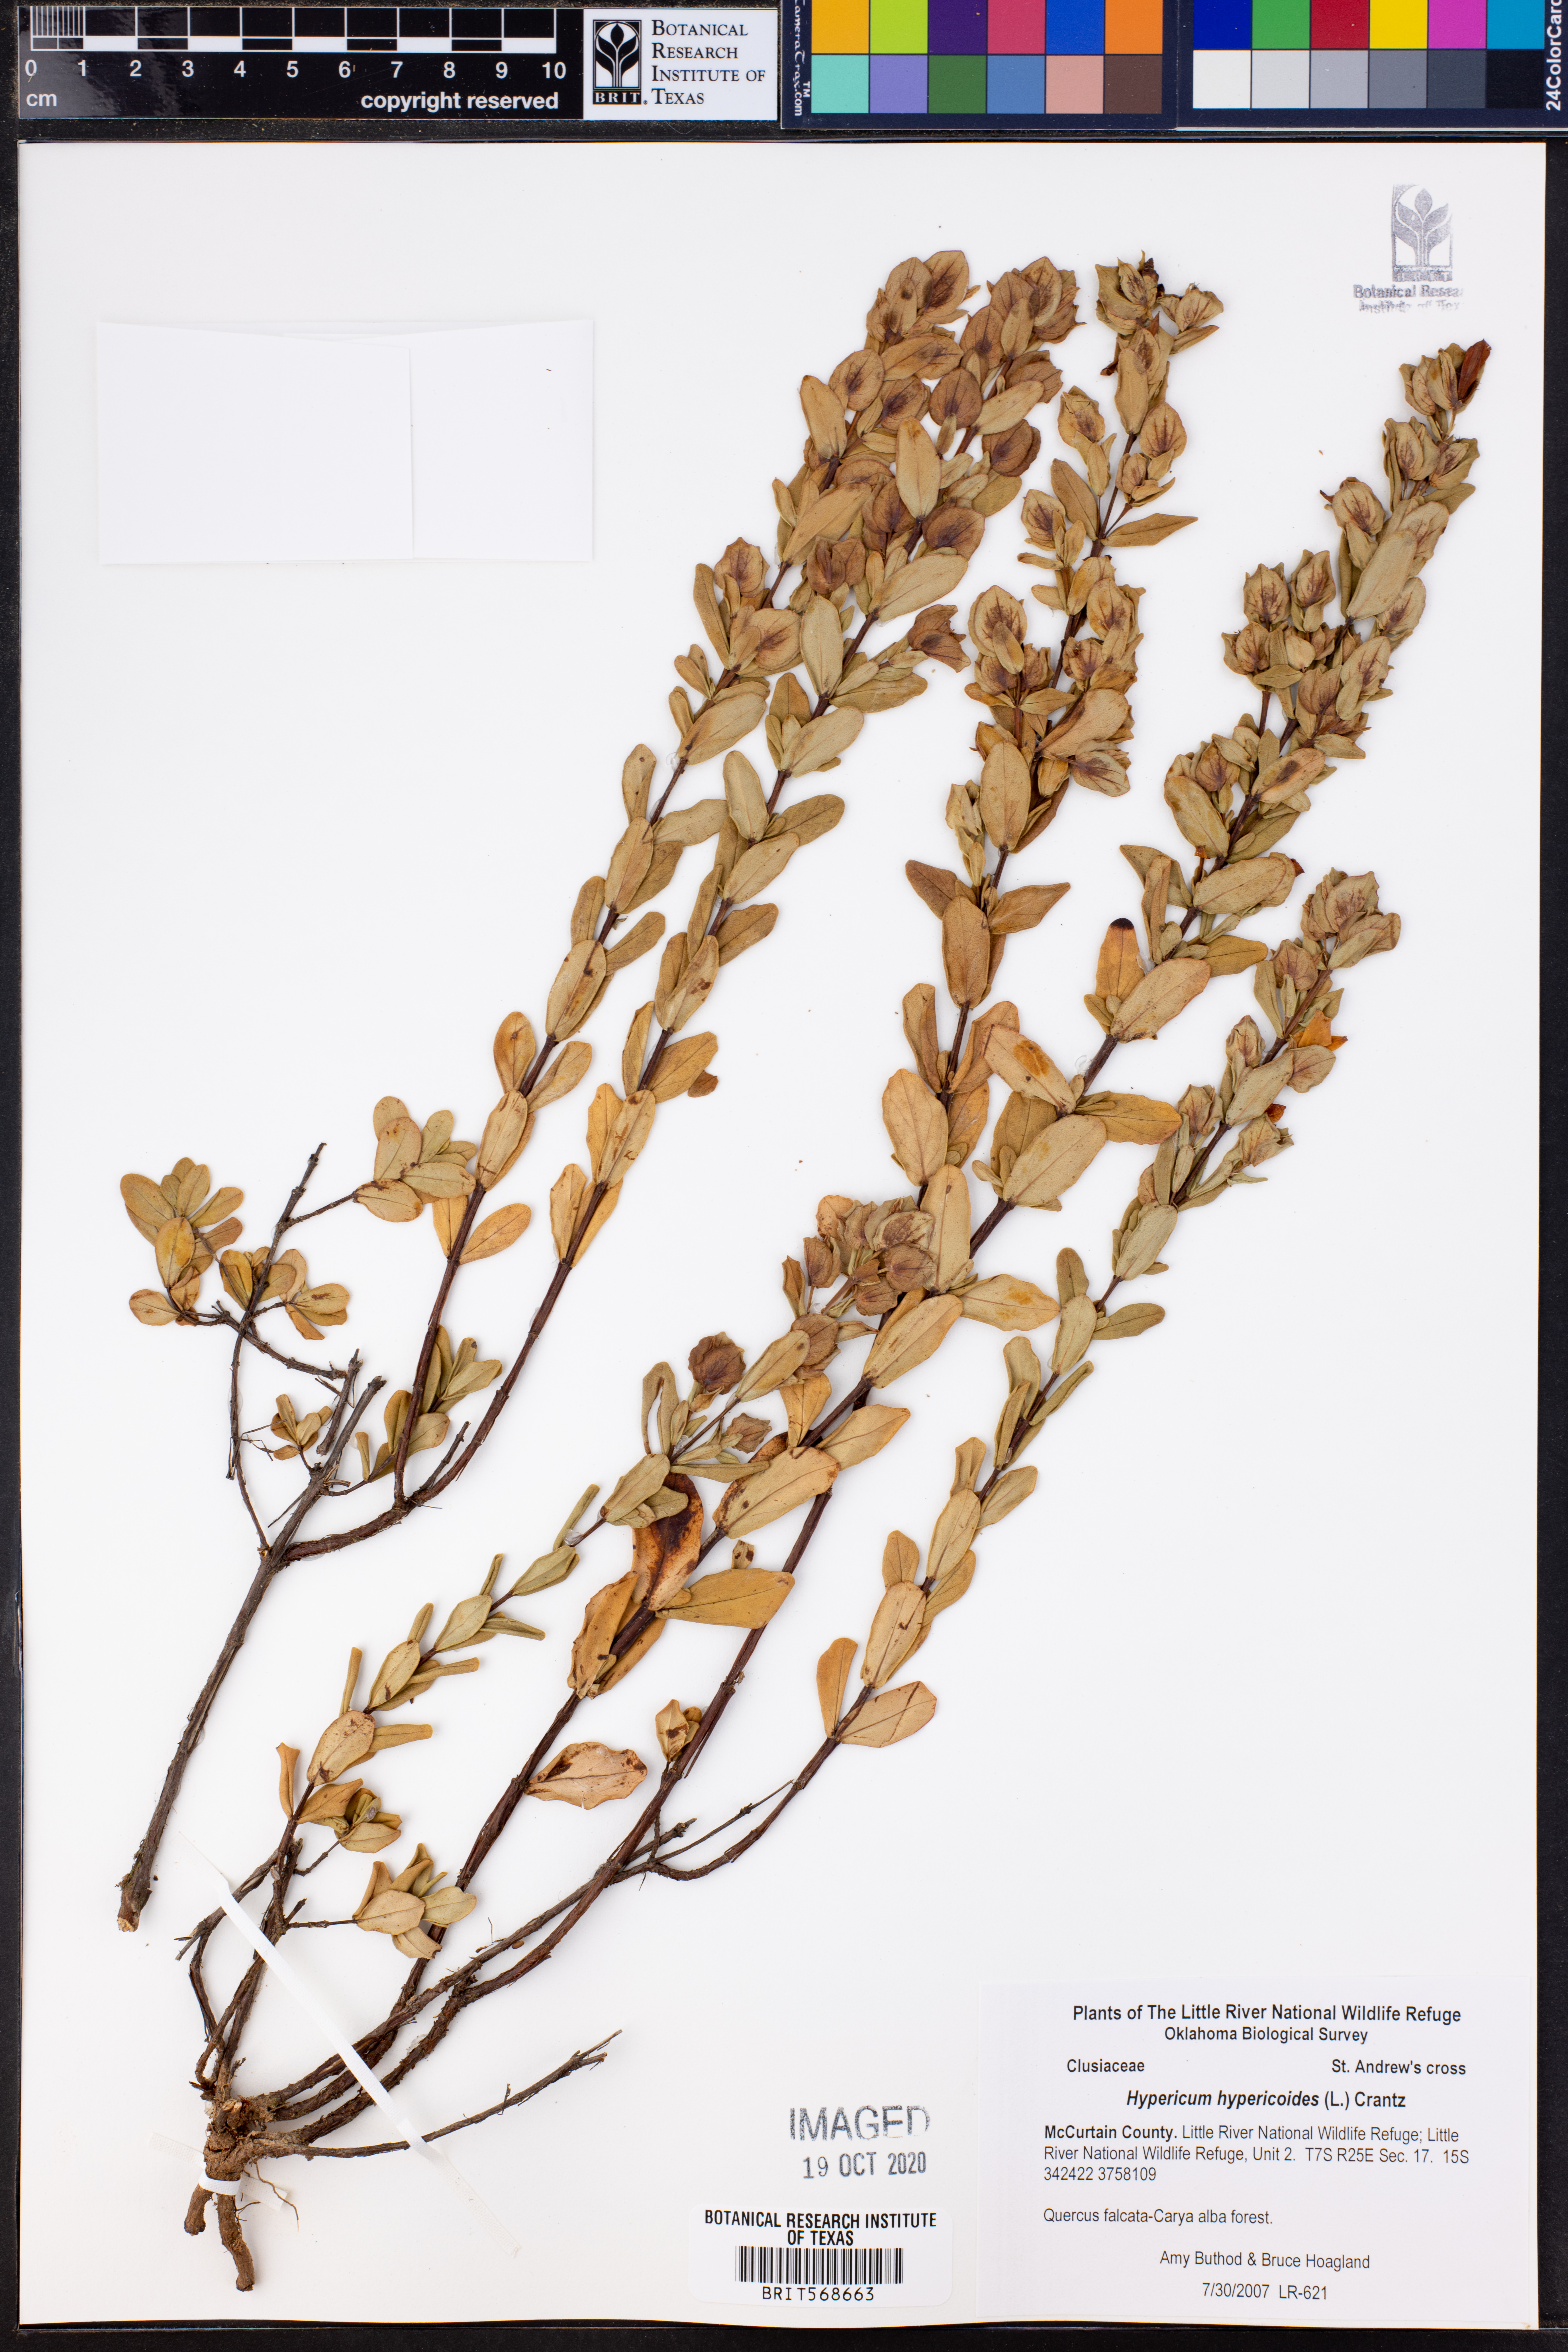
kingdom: Plantae
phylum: Tracheophyta
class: Magnoliopsida
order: Malpighiales
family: Hypericaceae
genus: Hypericum
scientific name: Hypericum hypericoides
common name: St. andrew's cross
